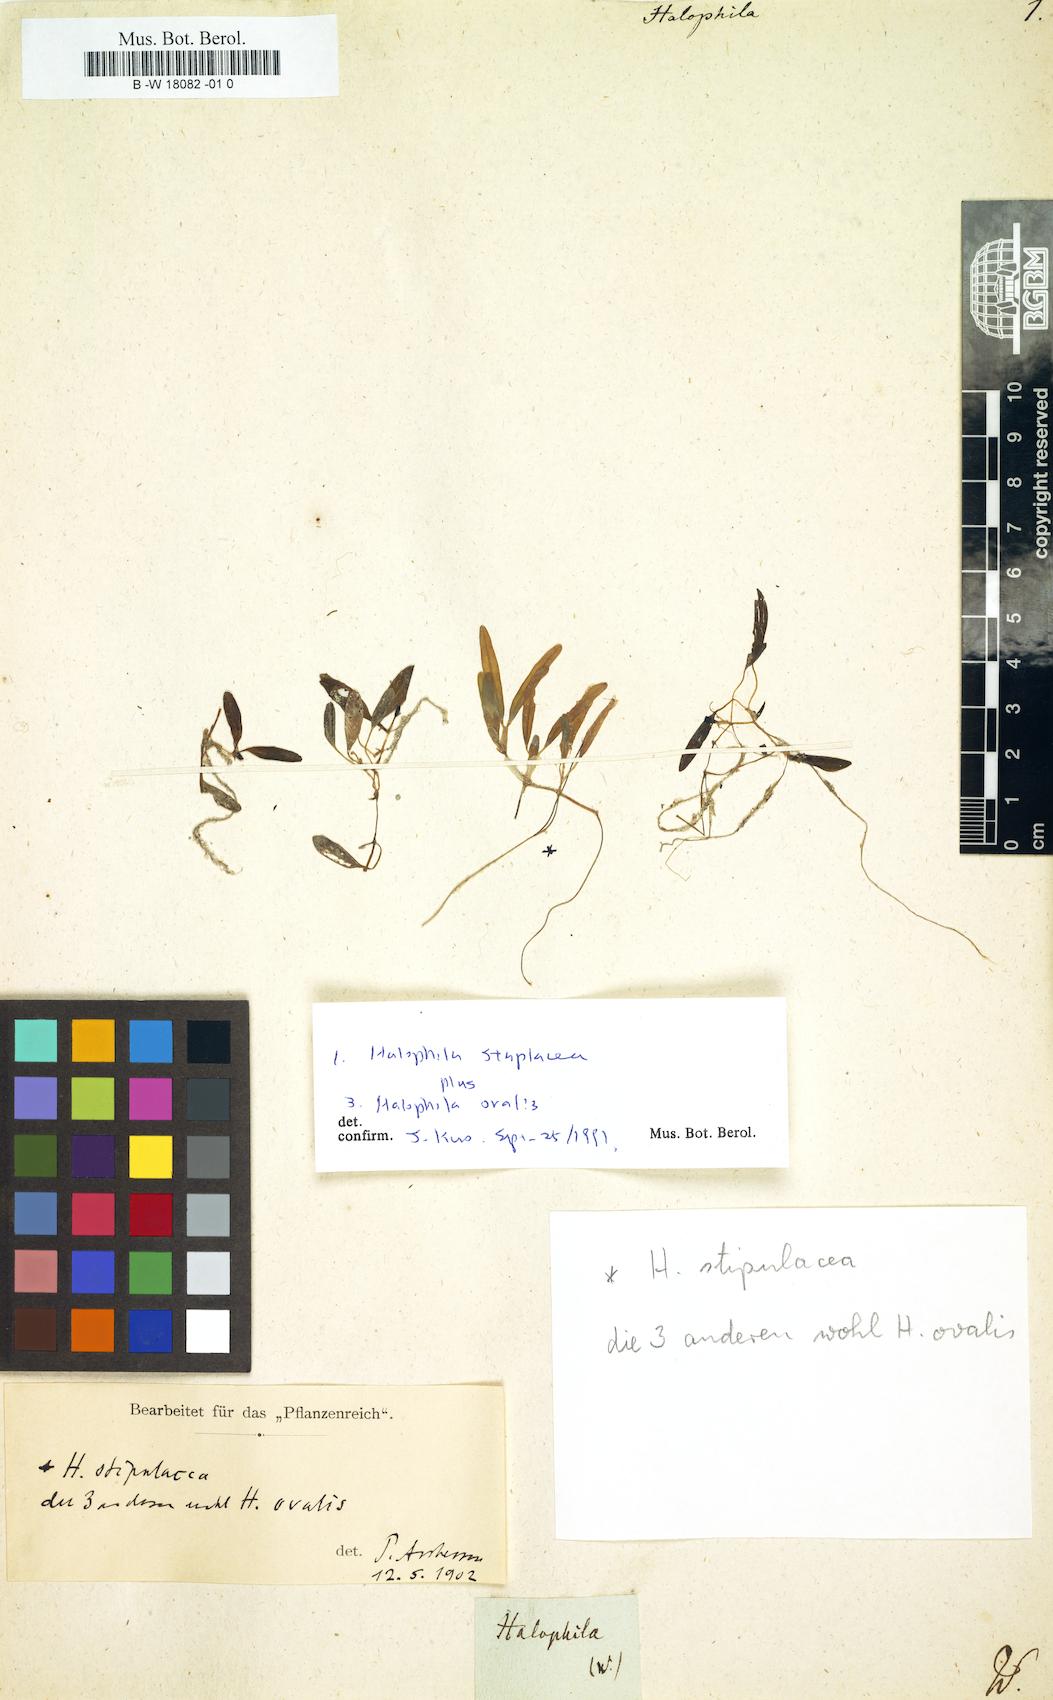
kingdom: Plantae
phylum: Tracheophyta
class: Liliopsida
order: Alismatales
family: Hydrocharitaceae
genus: Halophila
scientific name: Halophila
